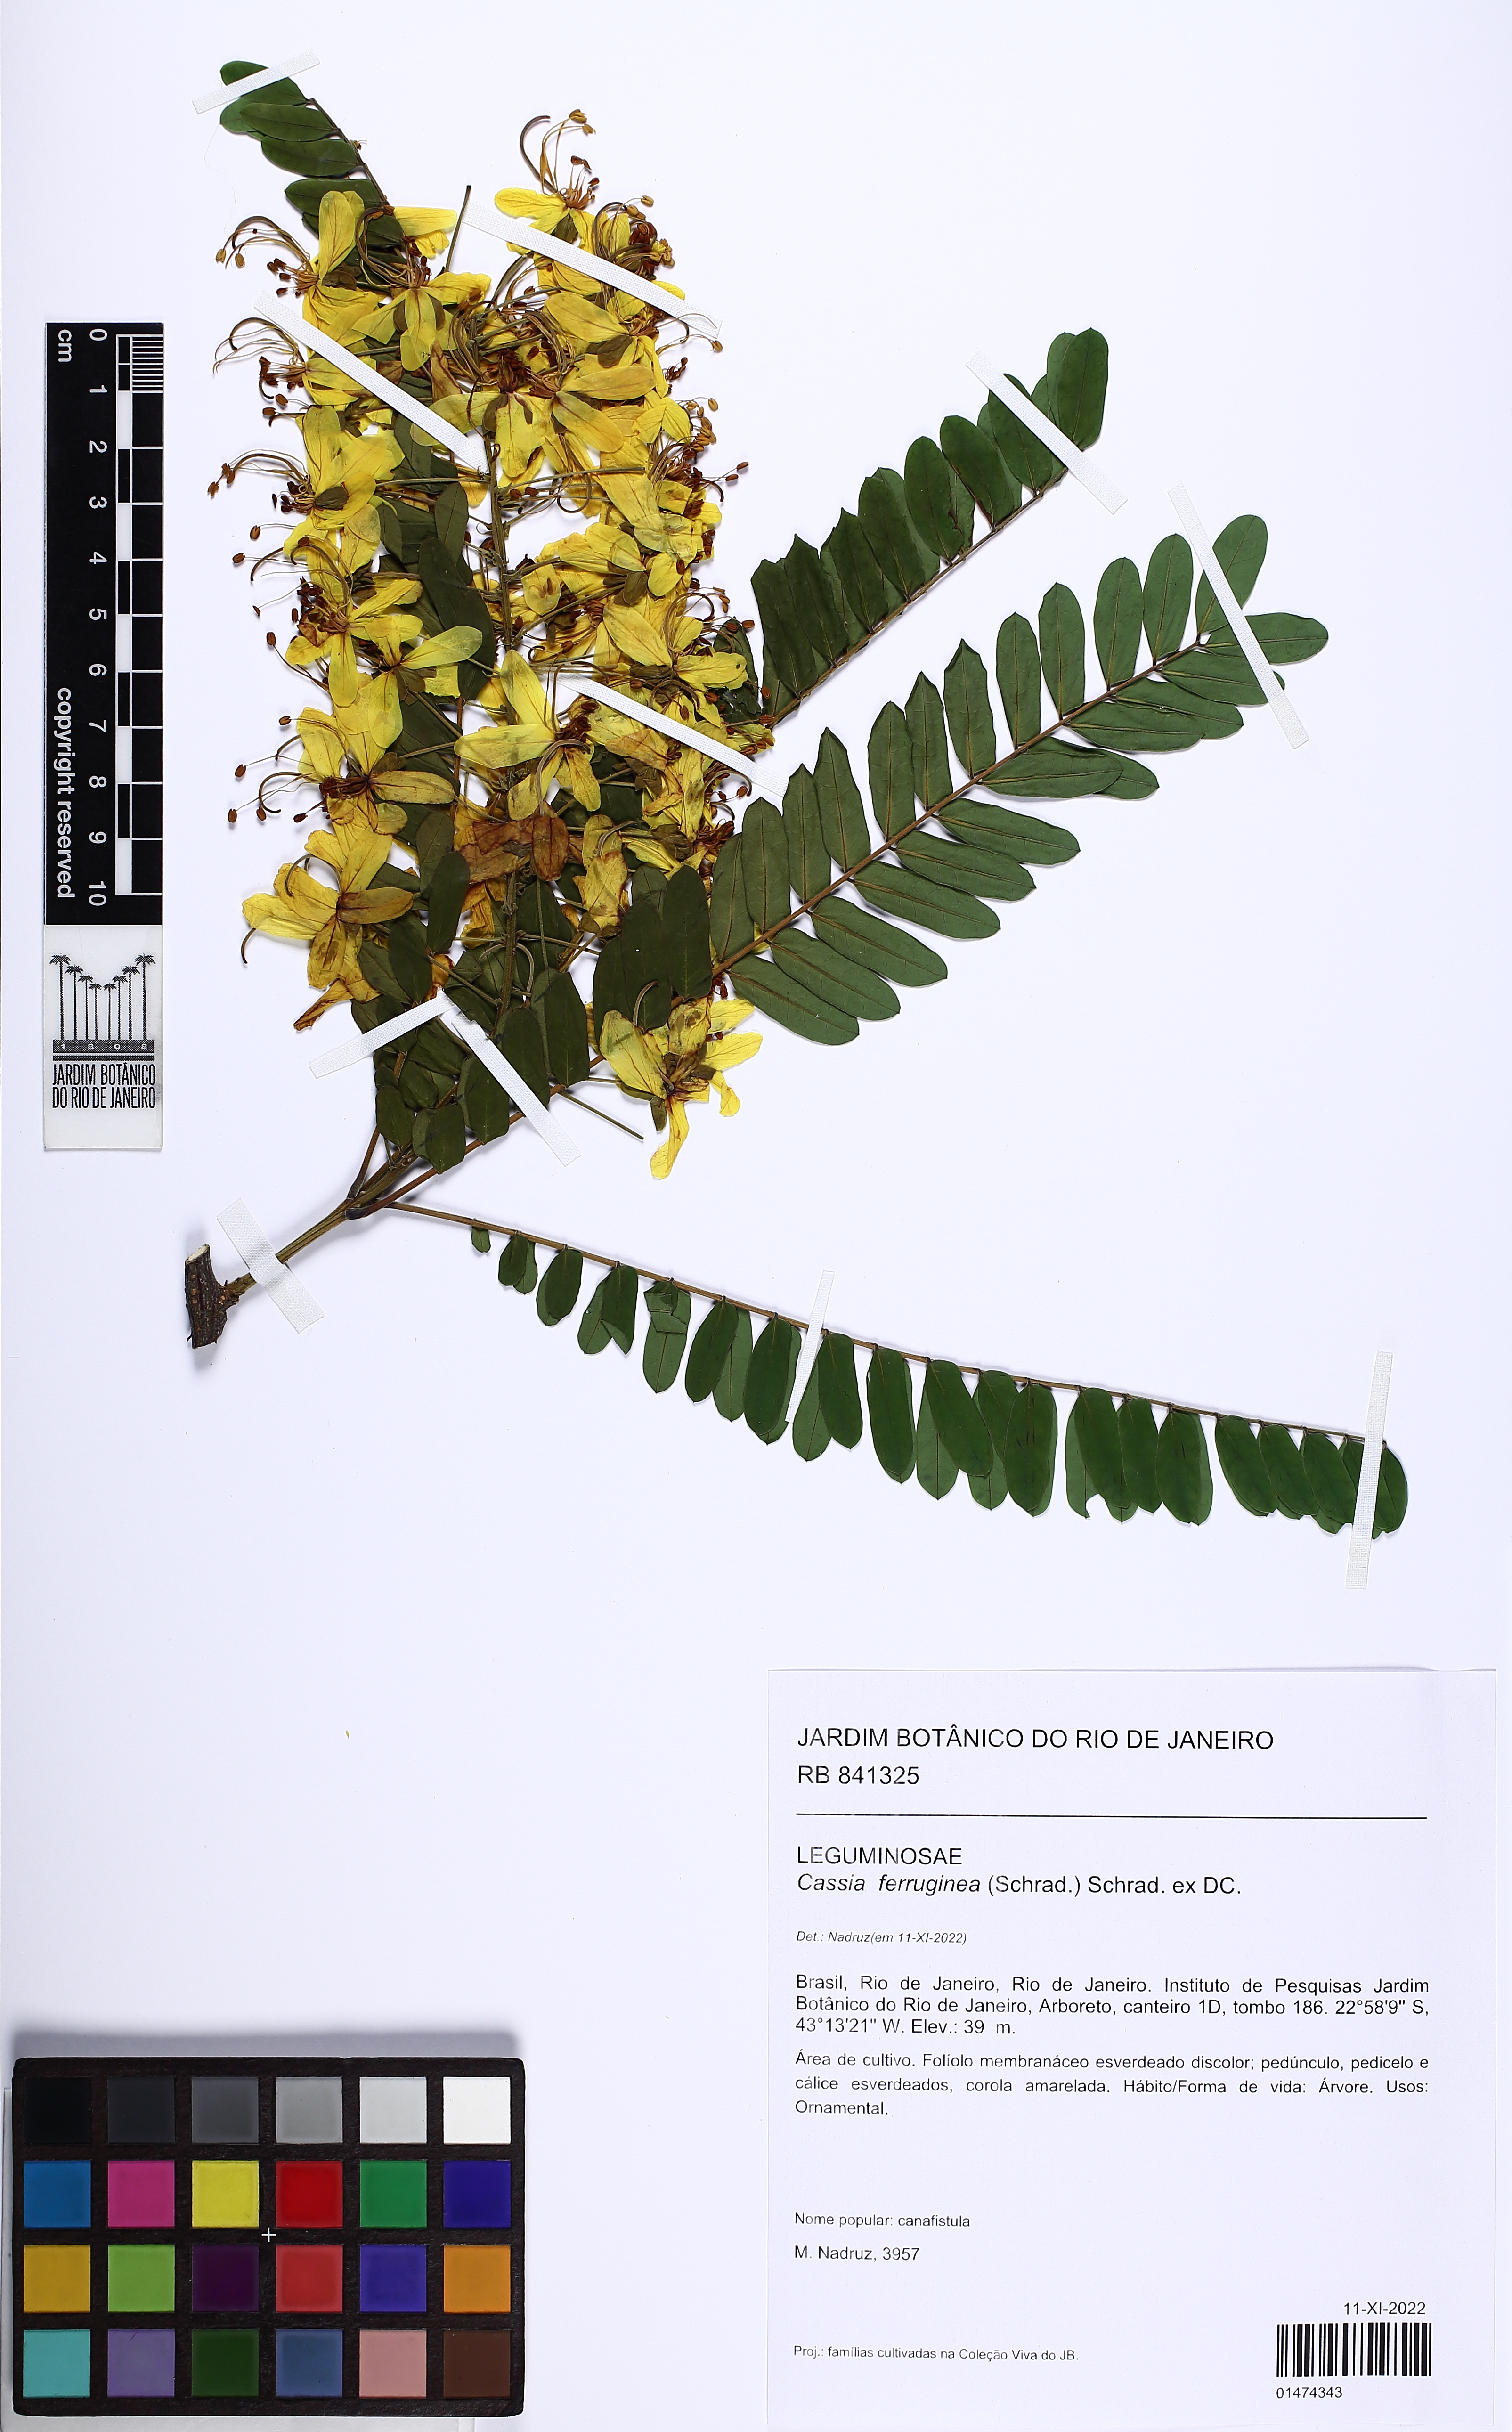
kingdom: Plantae
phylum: Tracheophyta
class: Magnoliopsida
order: Fabales
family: Fabaceae
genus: Cassia
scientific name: Cassia ferruginea
